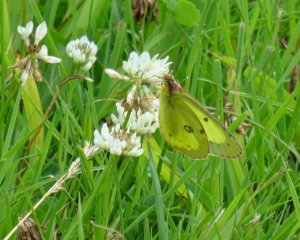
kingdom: Animalia
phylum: Arthropoda
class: Insecta
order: Lepidoptera
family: Pieridae
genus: Colias
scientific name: Colias philodice
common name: Clouded Sulphur
